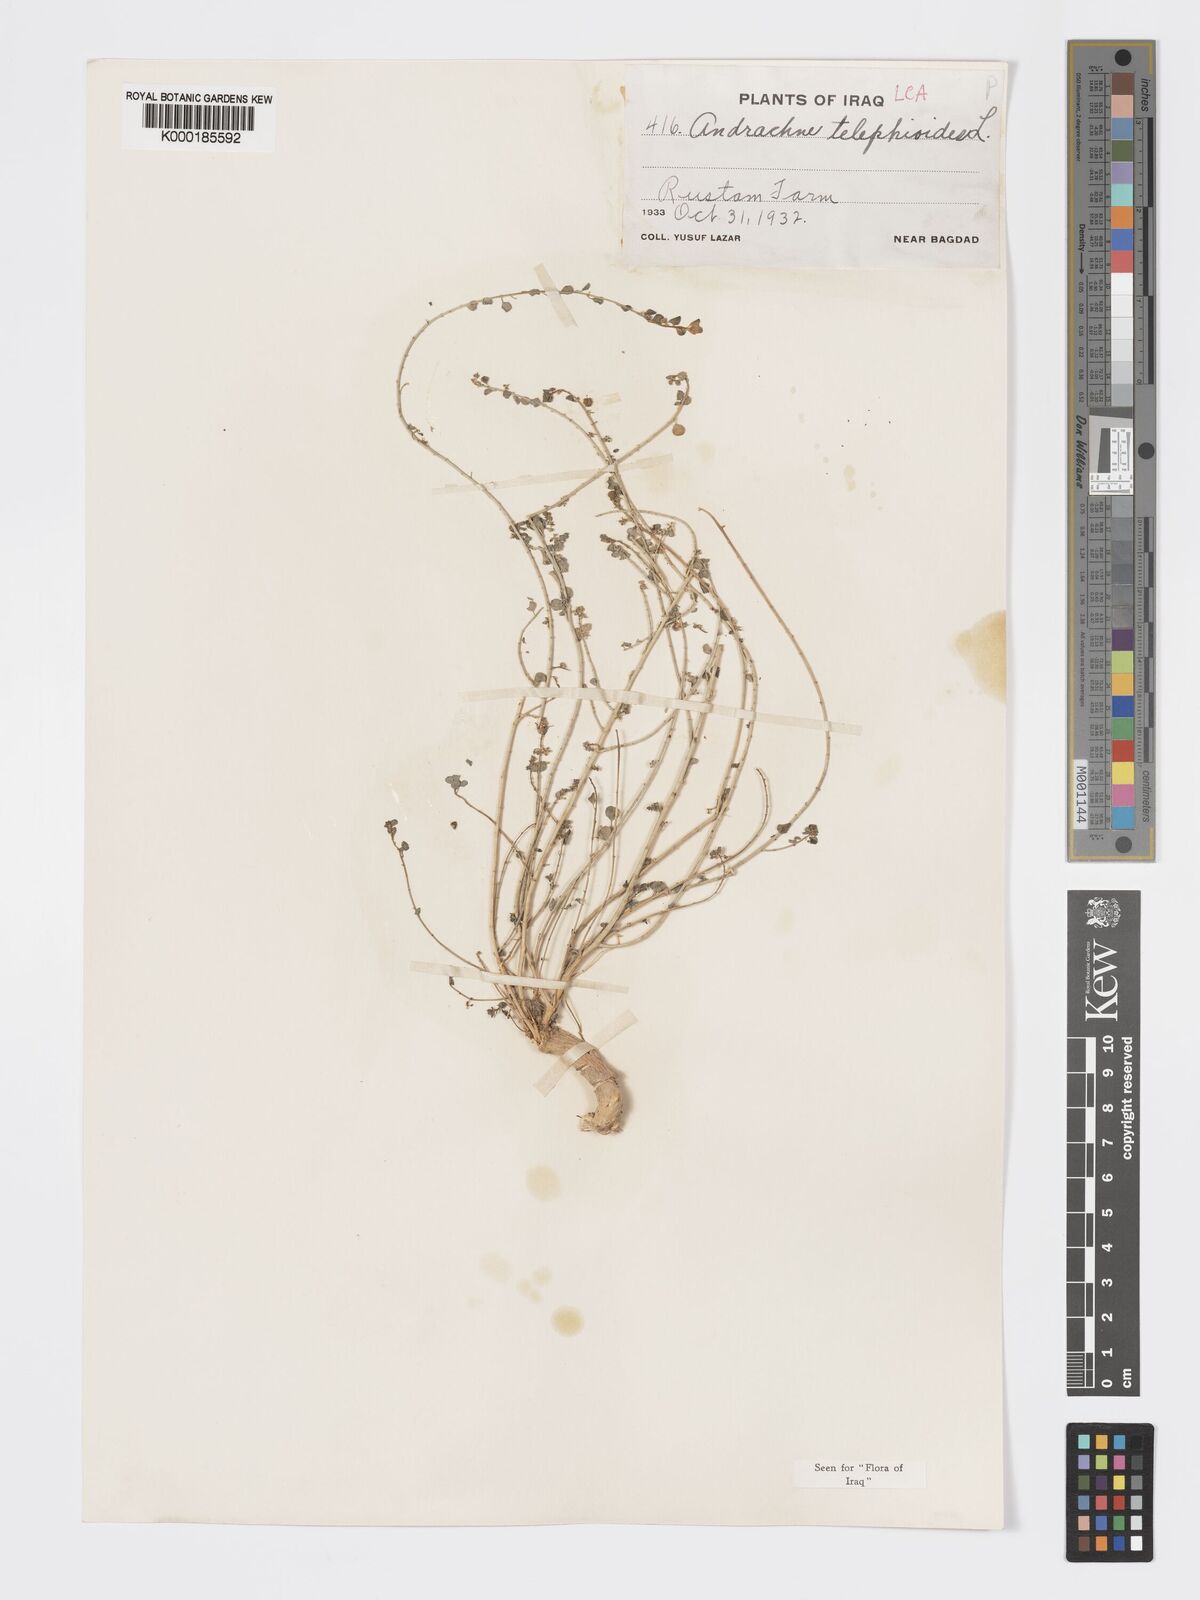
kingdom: Plantae
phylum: Tracheophyta
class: Magnoliopsida
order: Malpighiales
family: Phyllanthaceae
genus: Andrachne
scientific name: Andrachne telephioides
